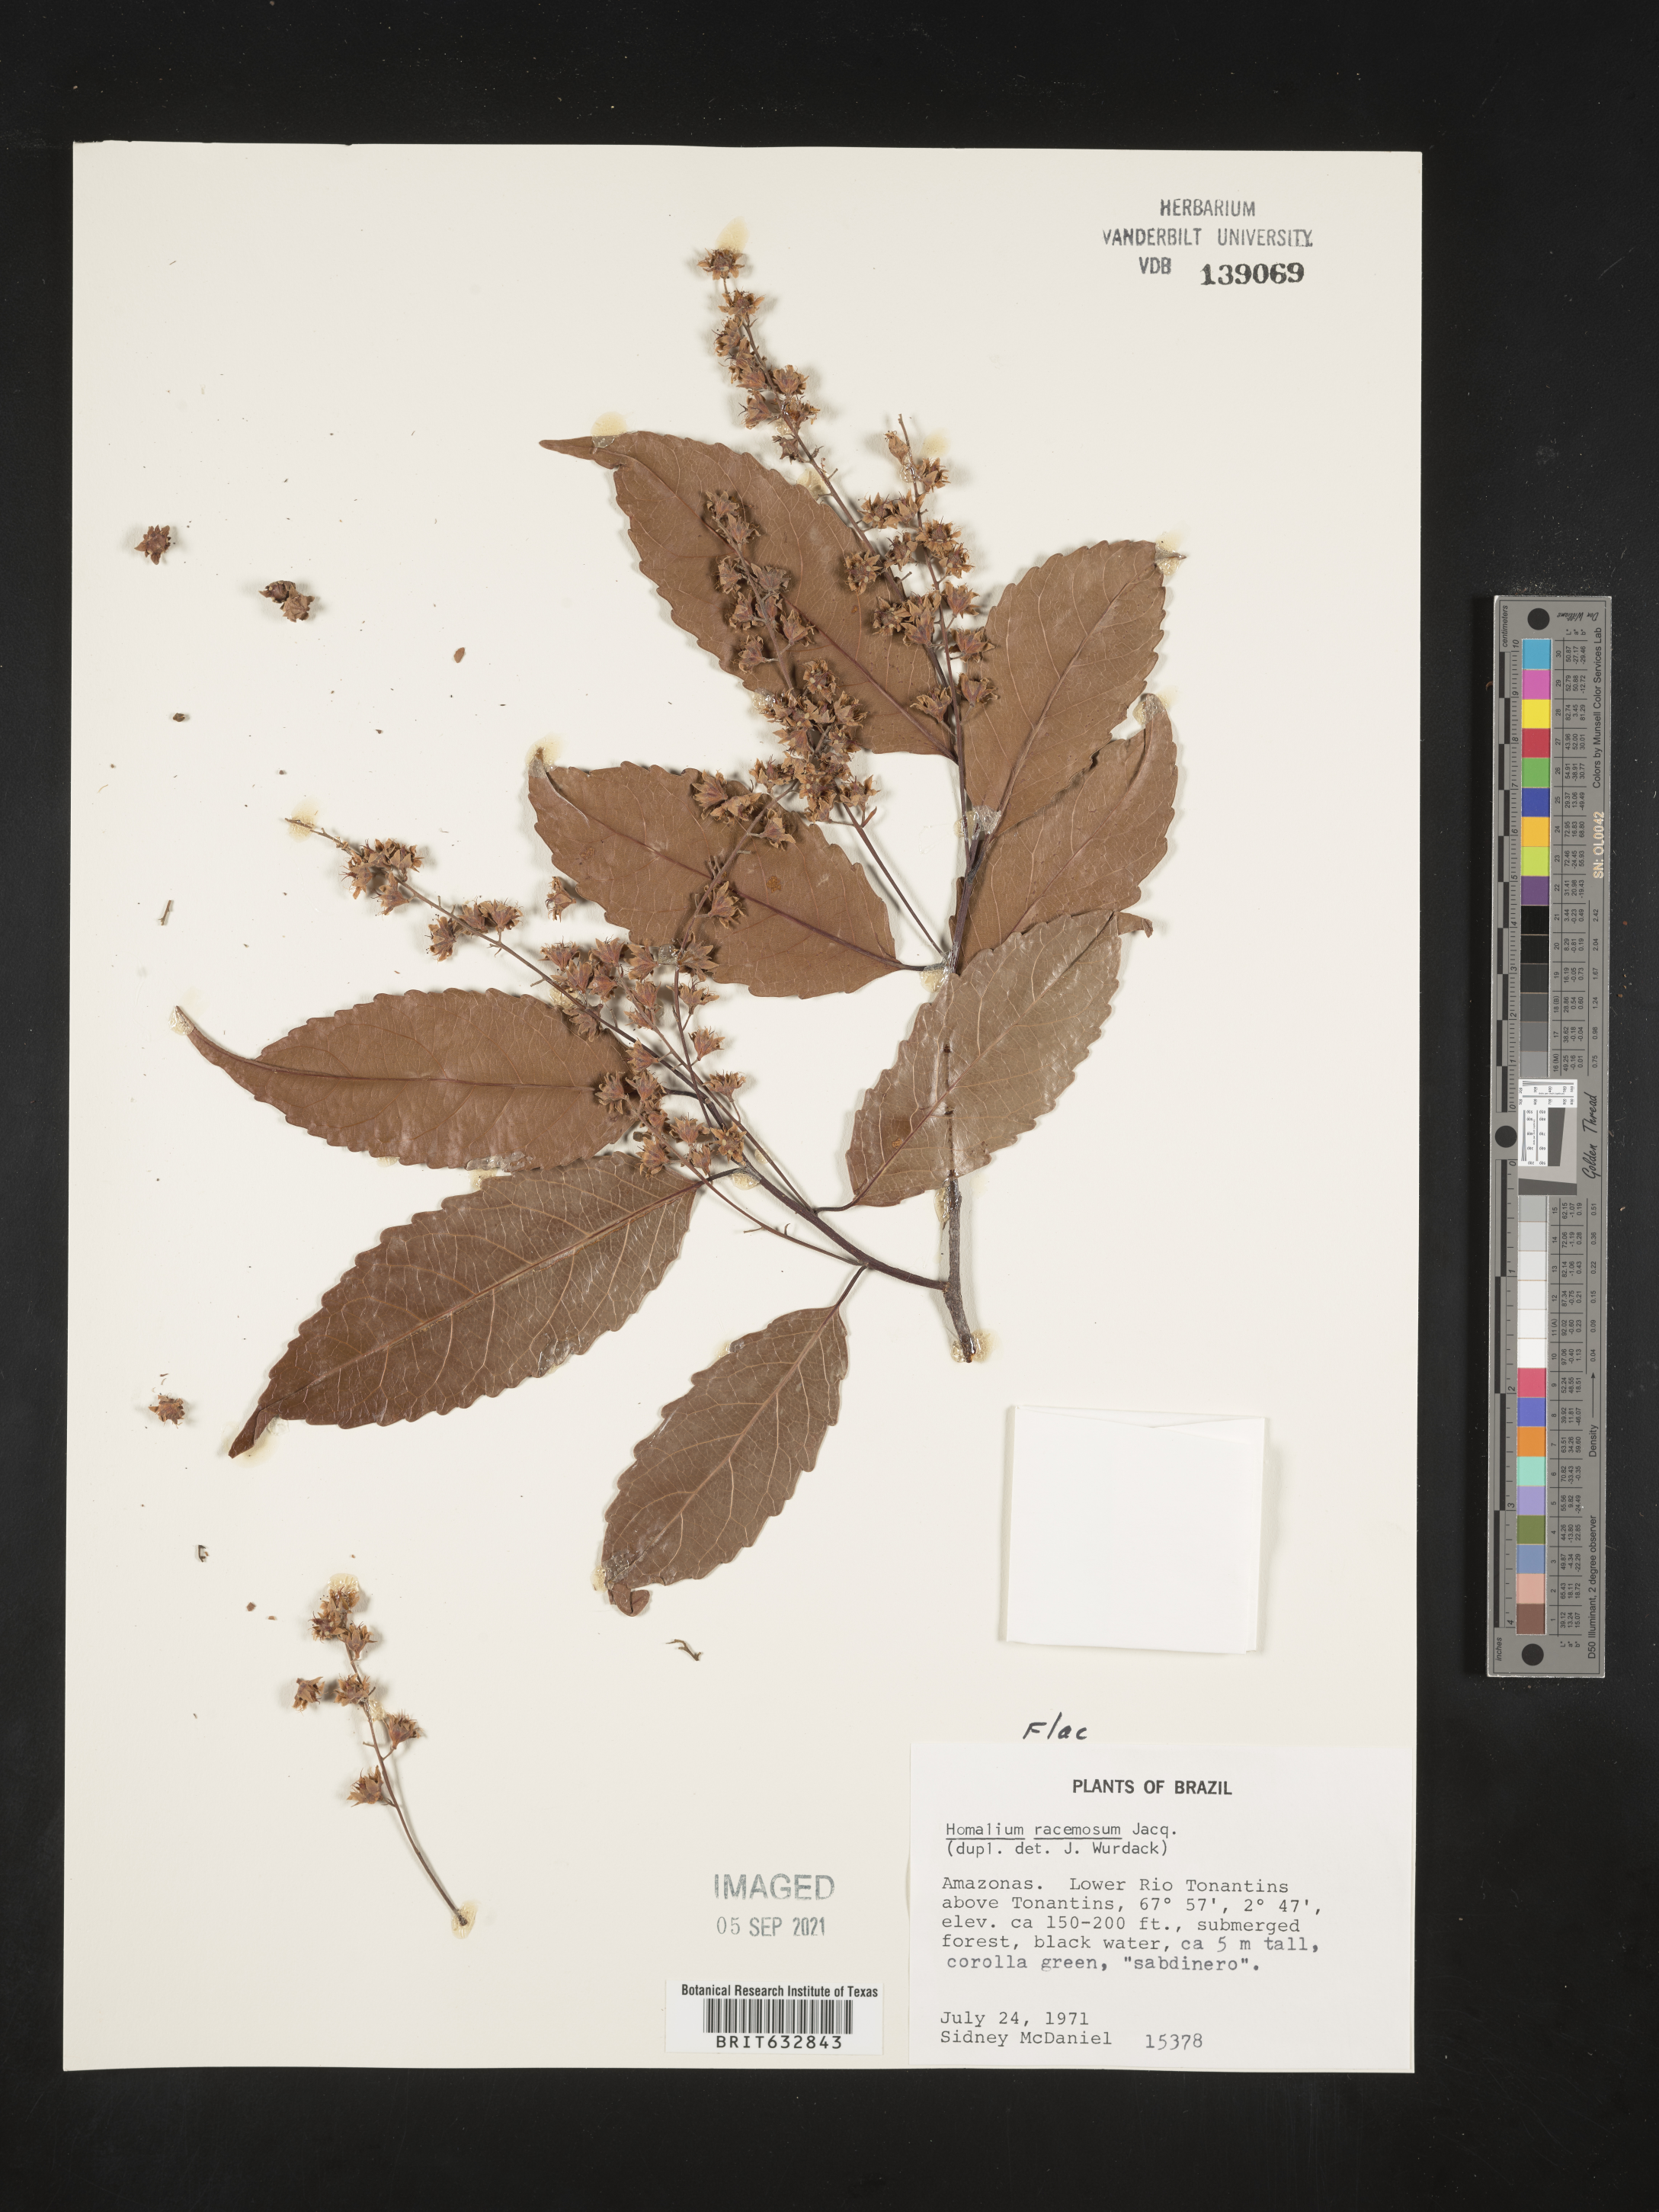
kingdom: Plantae
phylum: Tracheophyta
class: Magnoliopsida
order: Malpighiales
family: Salicaceae
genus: Homalium
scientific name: Homalium
